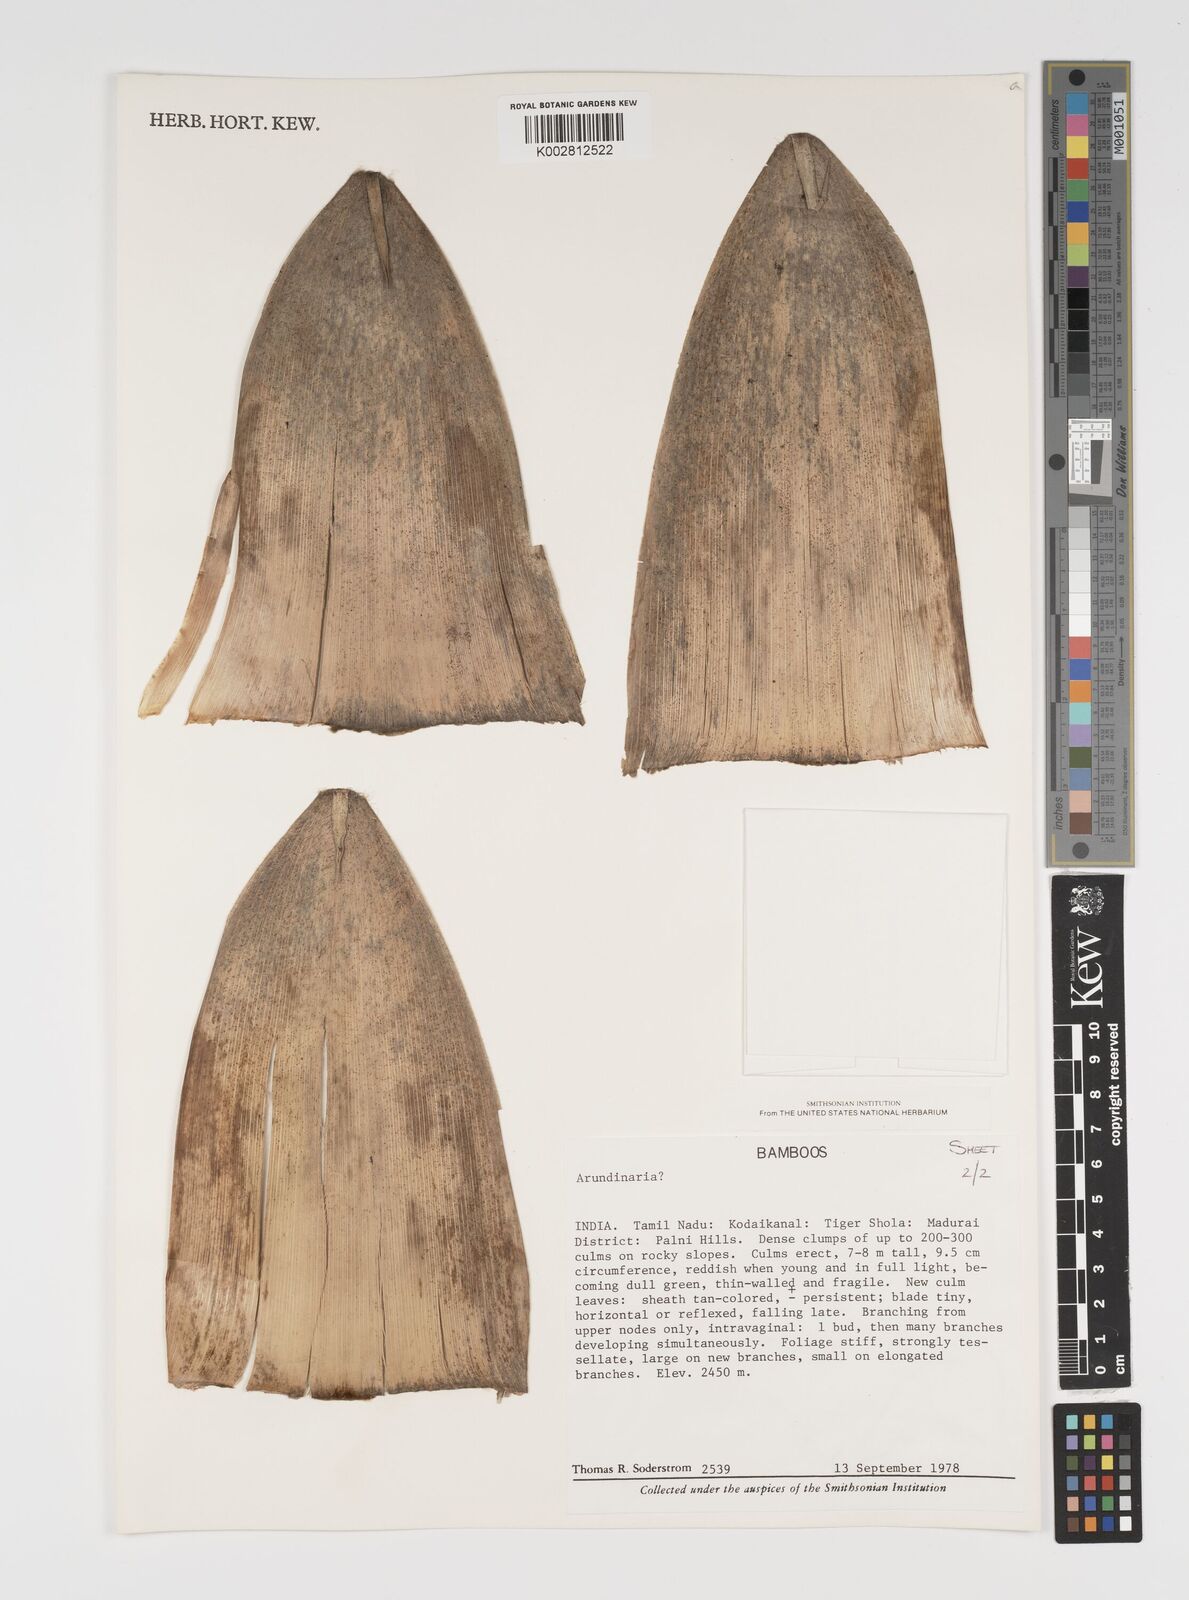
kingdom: Plantae
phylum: Tracheophyta
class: Liliopsida
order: Poales
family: Poaceae
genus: Arundinaria
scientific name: Arundinaria
